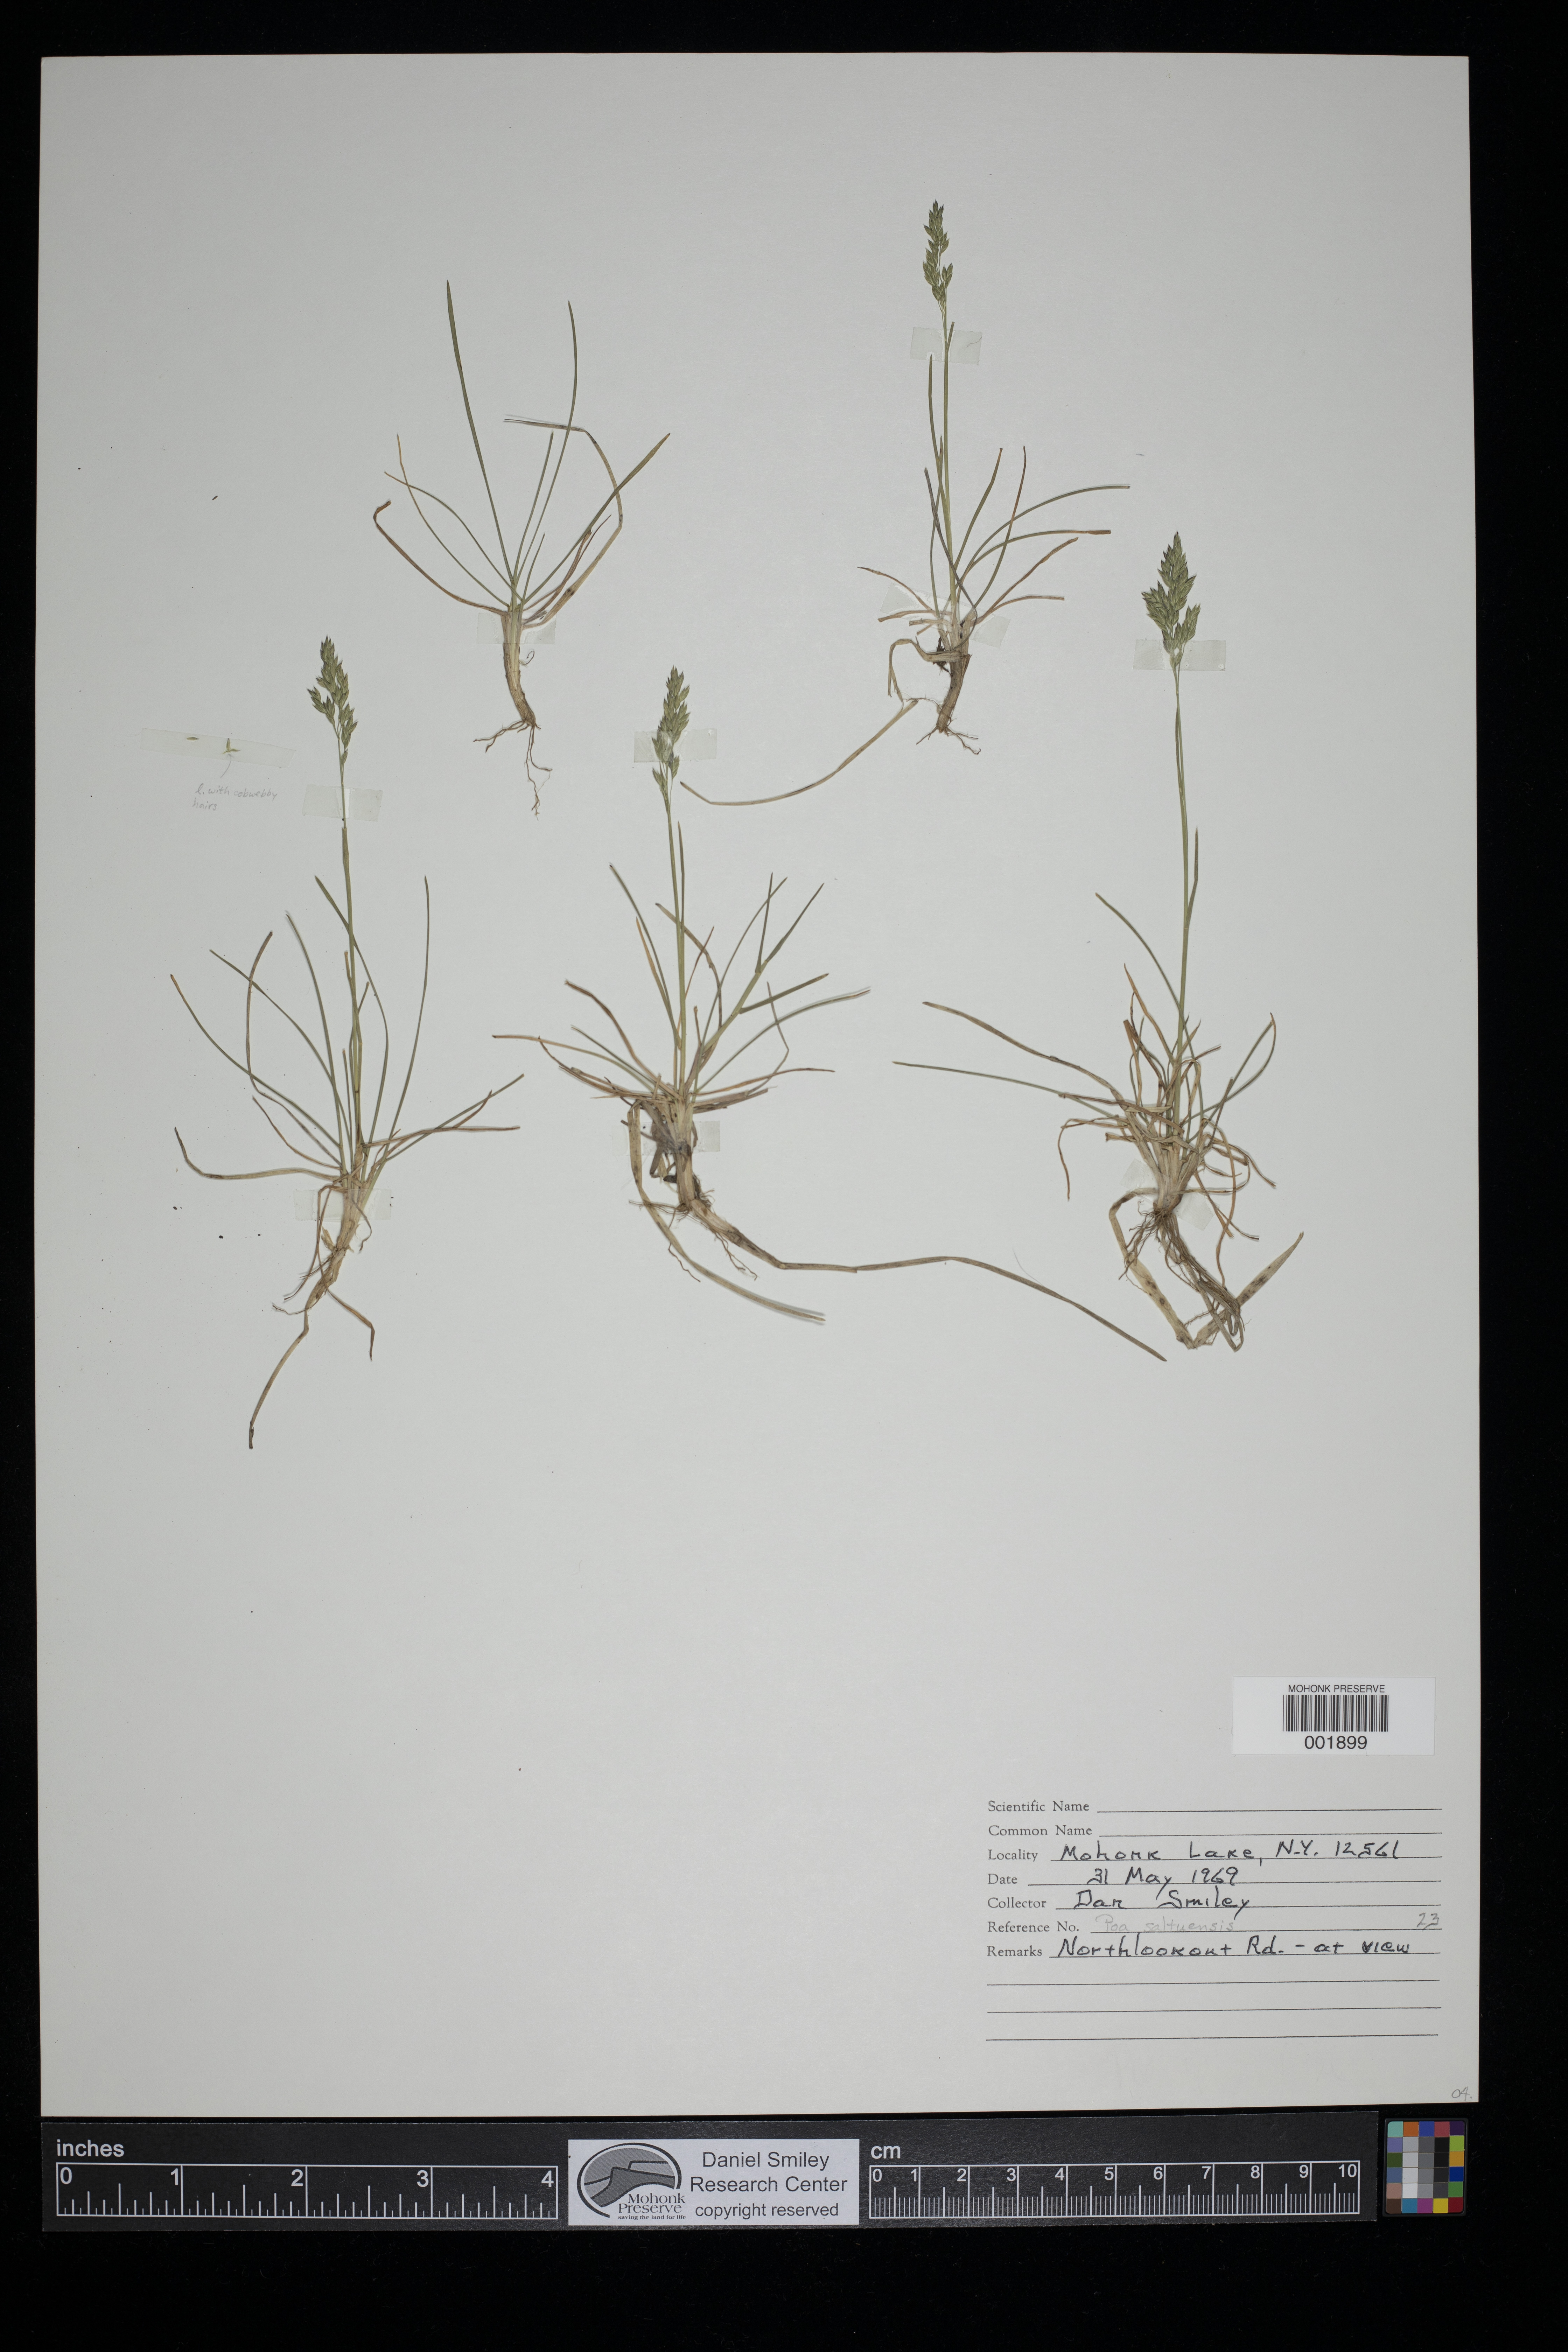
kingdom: Plantae
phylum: Tracheophyta
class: Liliopsida
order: Poales
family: Poaceae
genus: Poa
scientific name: Poa saltuensis
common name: Bushy pasture speargrass
